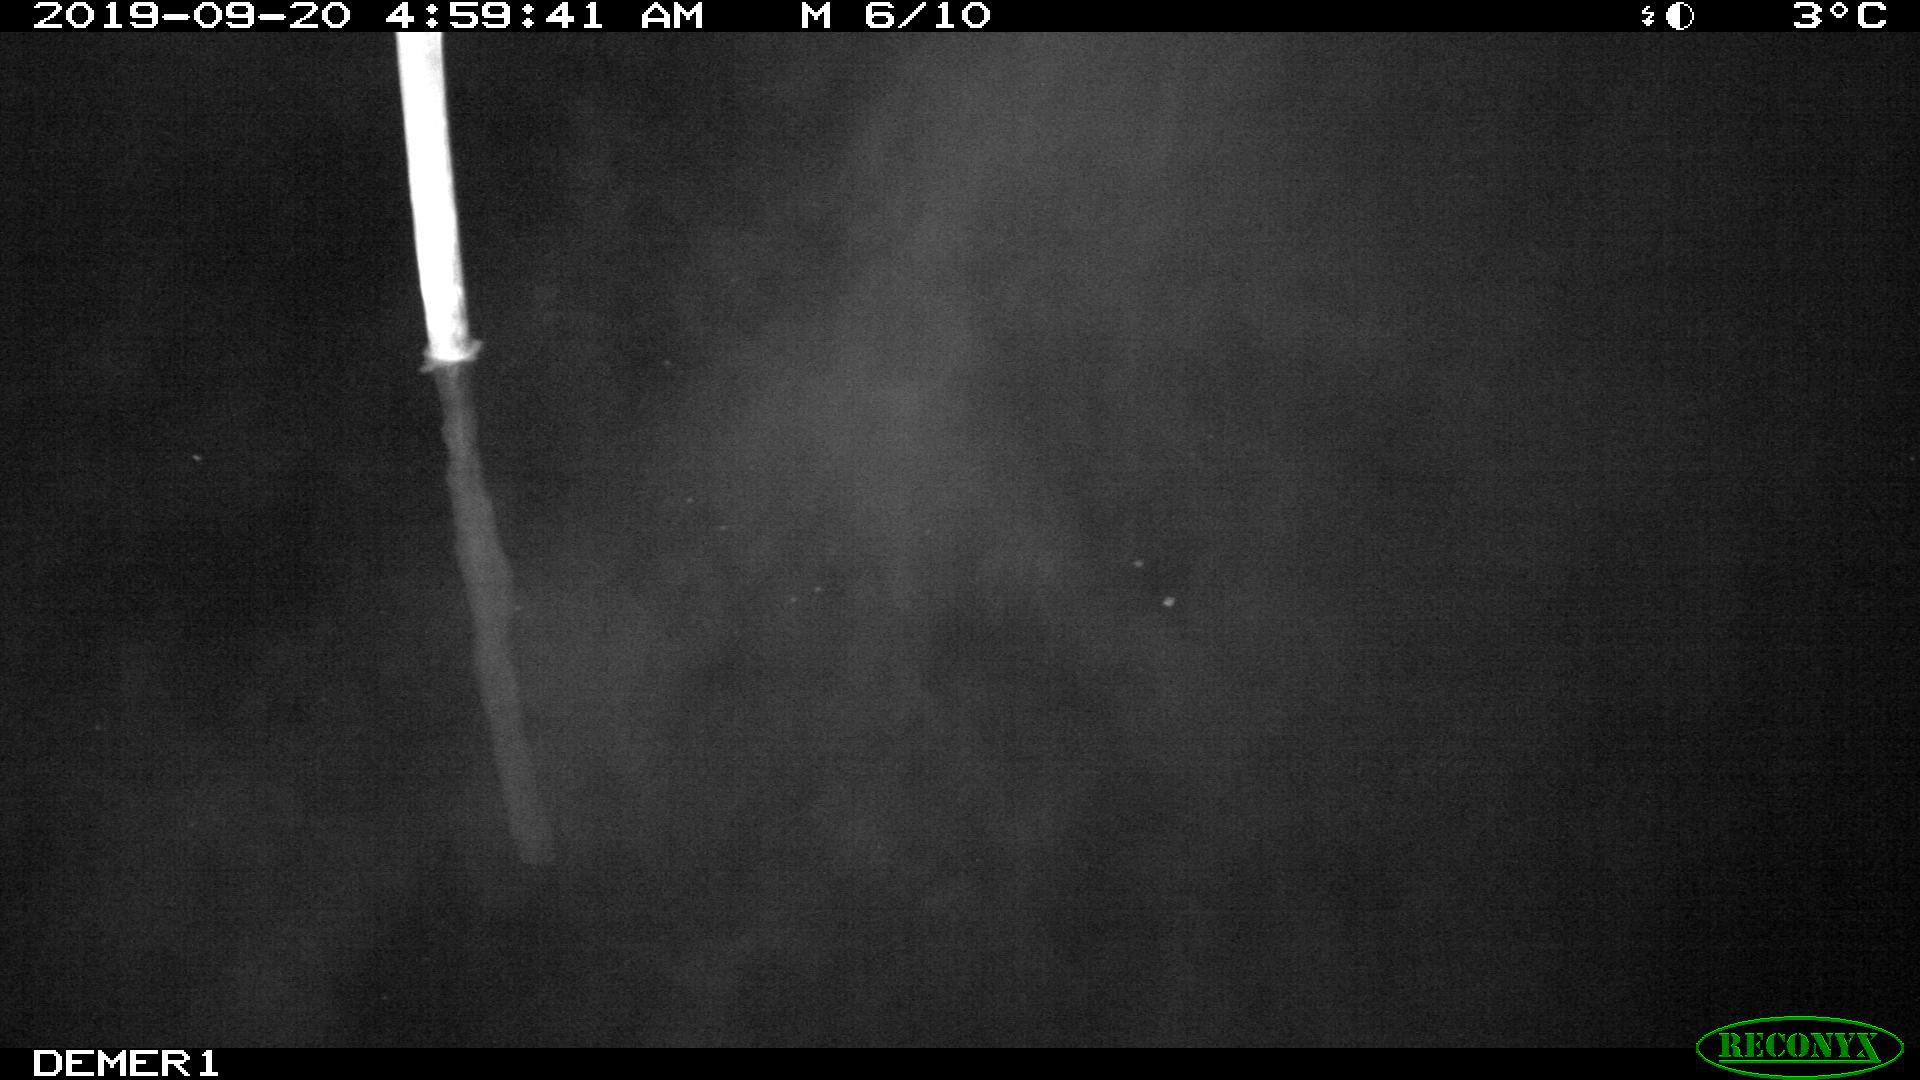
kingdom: Animalia
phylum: Chordata
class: Aves
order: Anseriformes
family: Anatidae
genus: Anas
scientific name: Anas platyrhynchos
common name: Mallard
